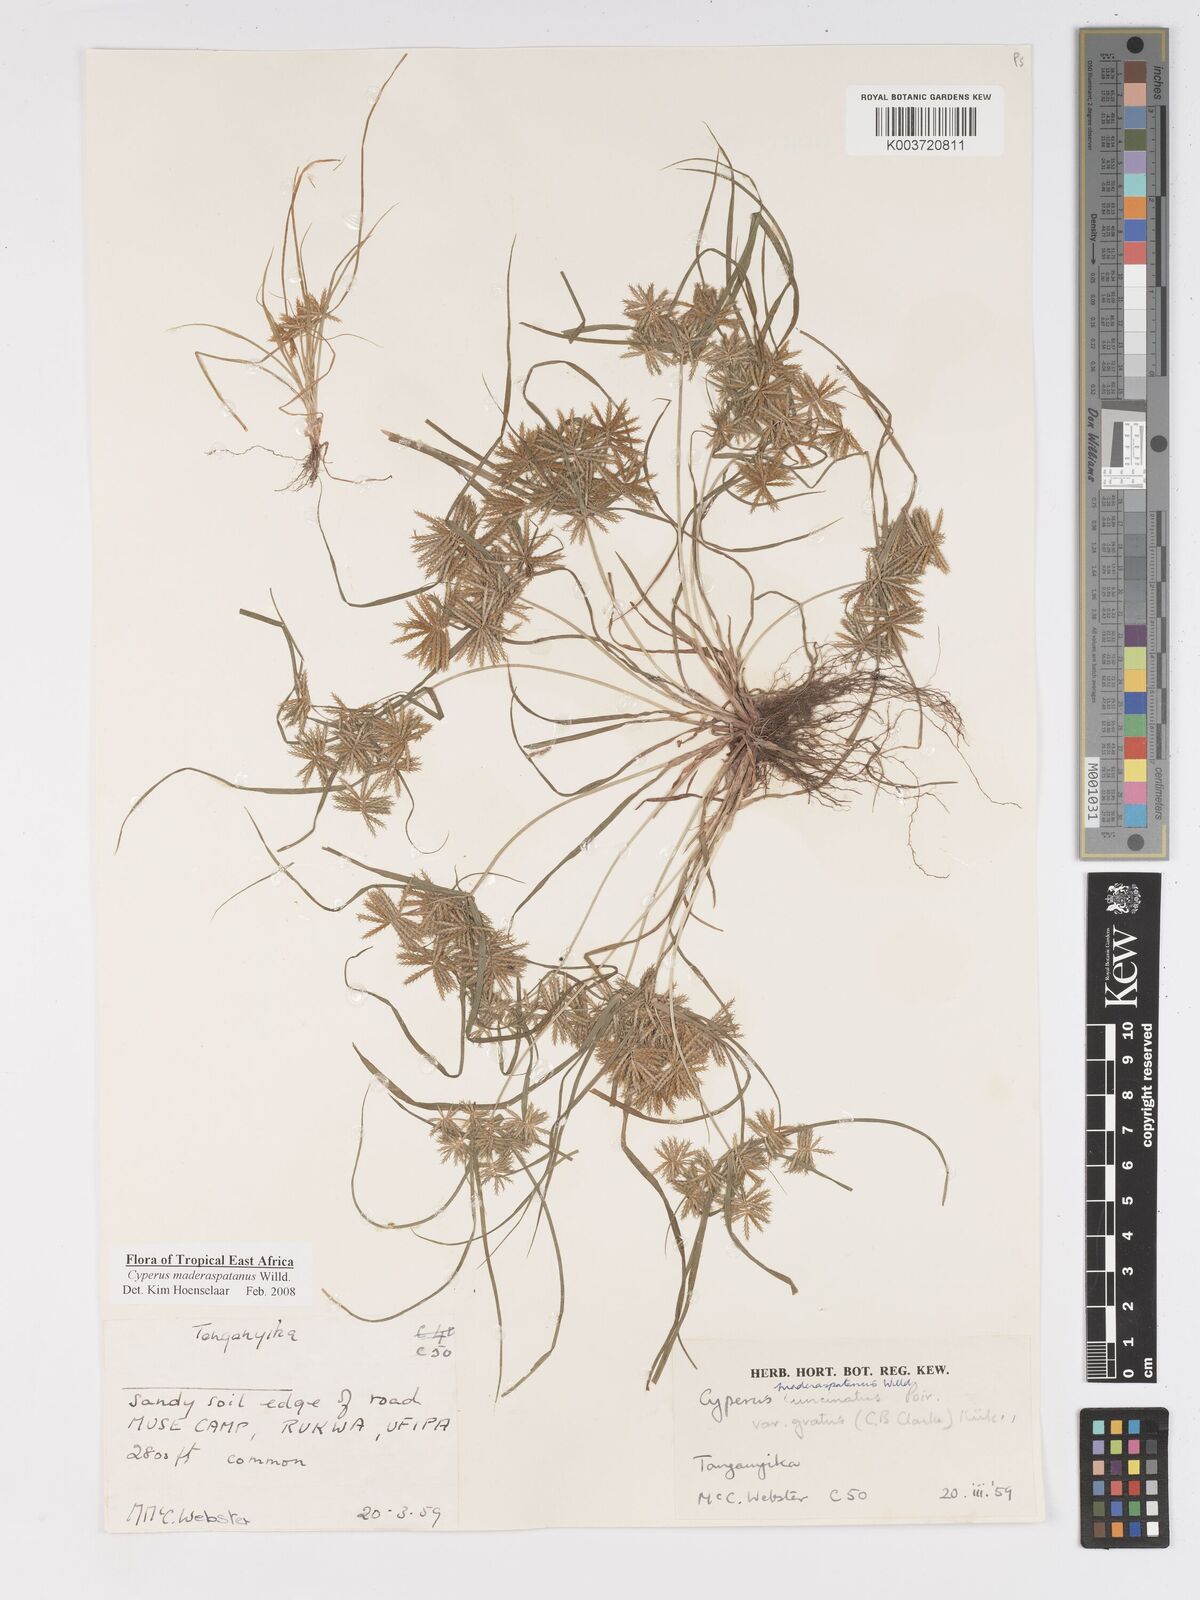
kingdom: Plantae
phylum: Tracheophyta
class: Liliopsida
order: Poales
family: Cyperaceae
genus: Cyperus
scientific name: Cyperus maderaspatanus
